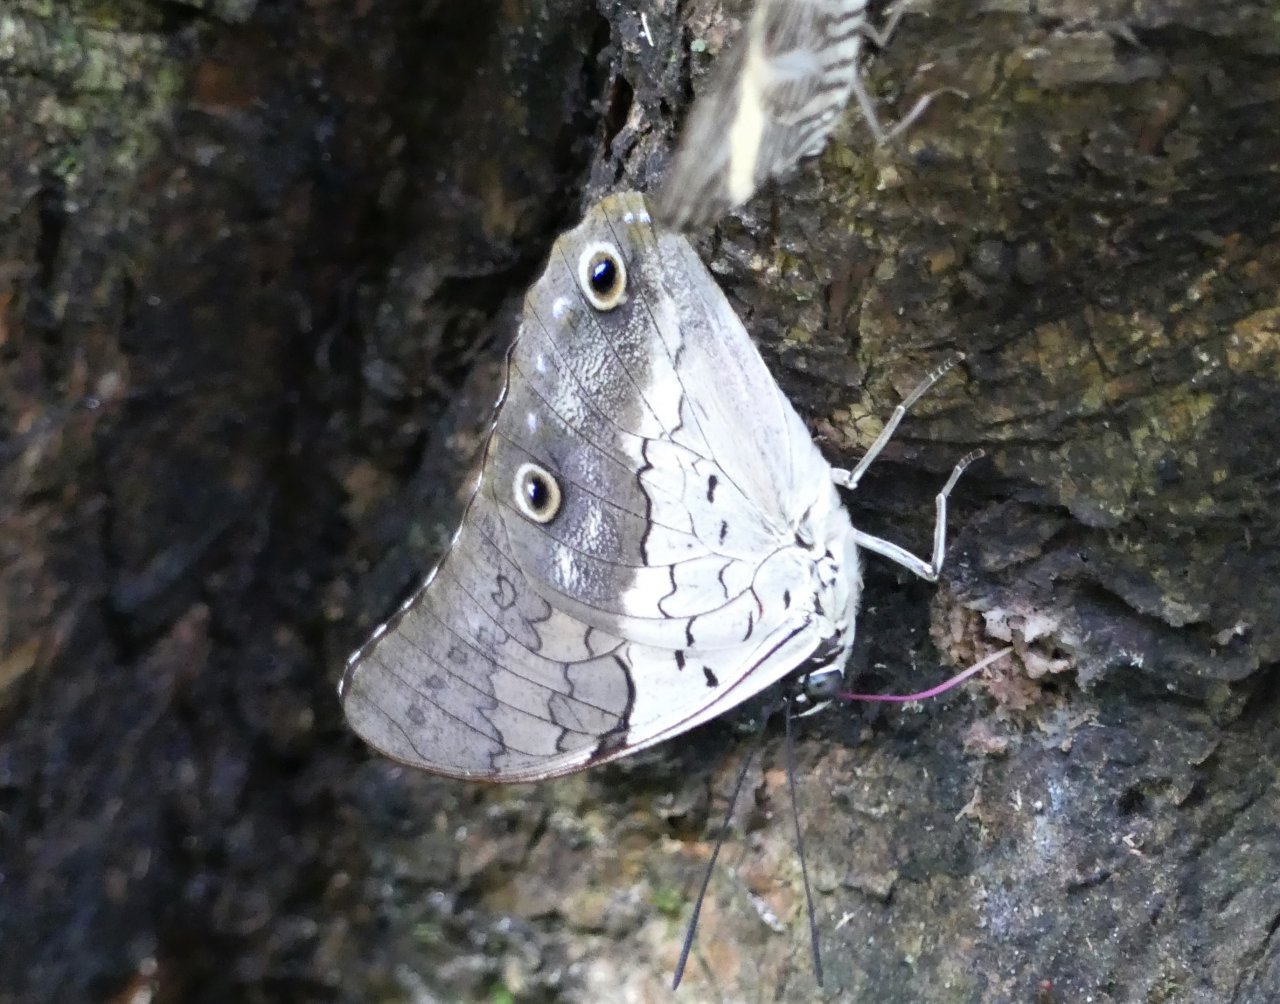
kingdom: Animalia
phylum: Arthropoda
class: Insecta
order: Lepidoptera
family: Nymphalidae
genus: Prepona
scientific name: Prepona laertes
